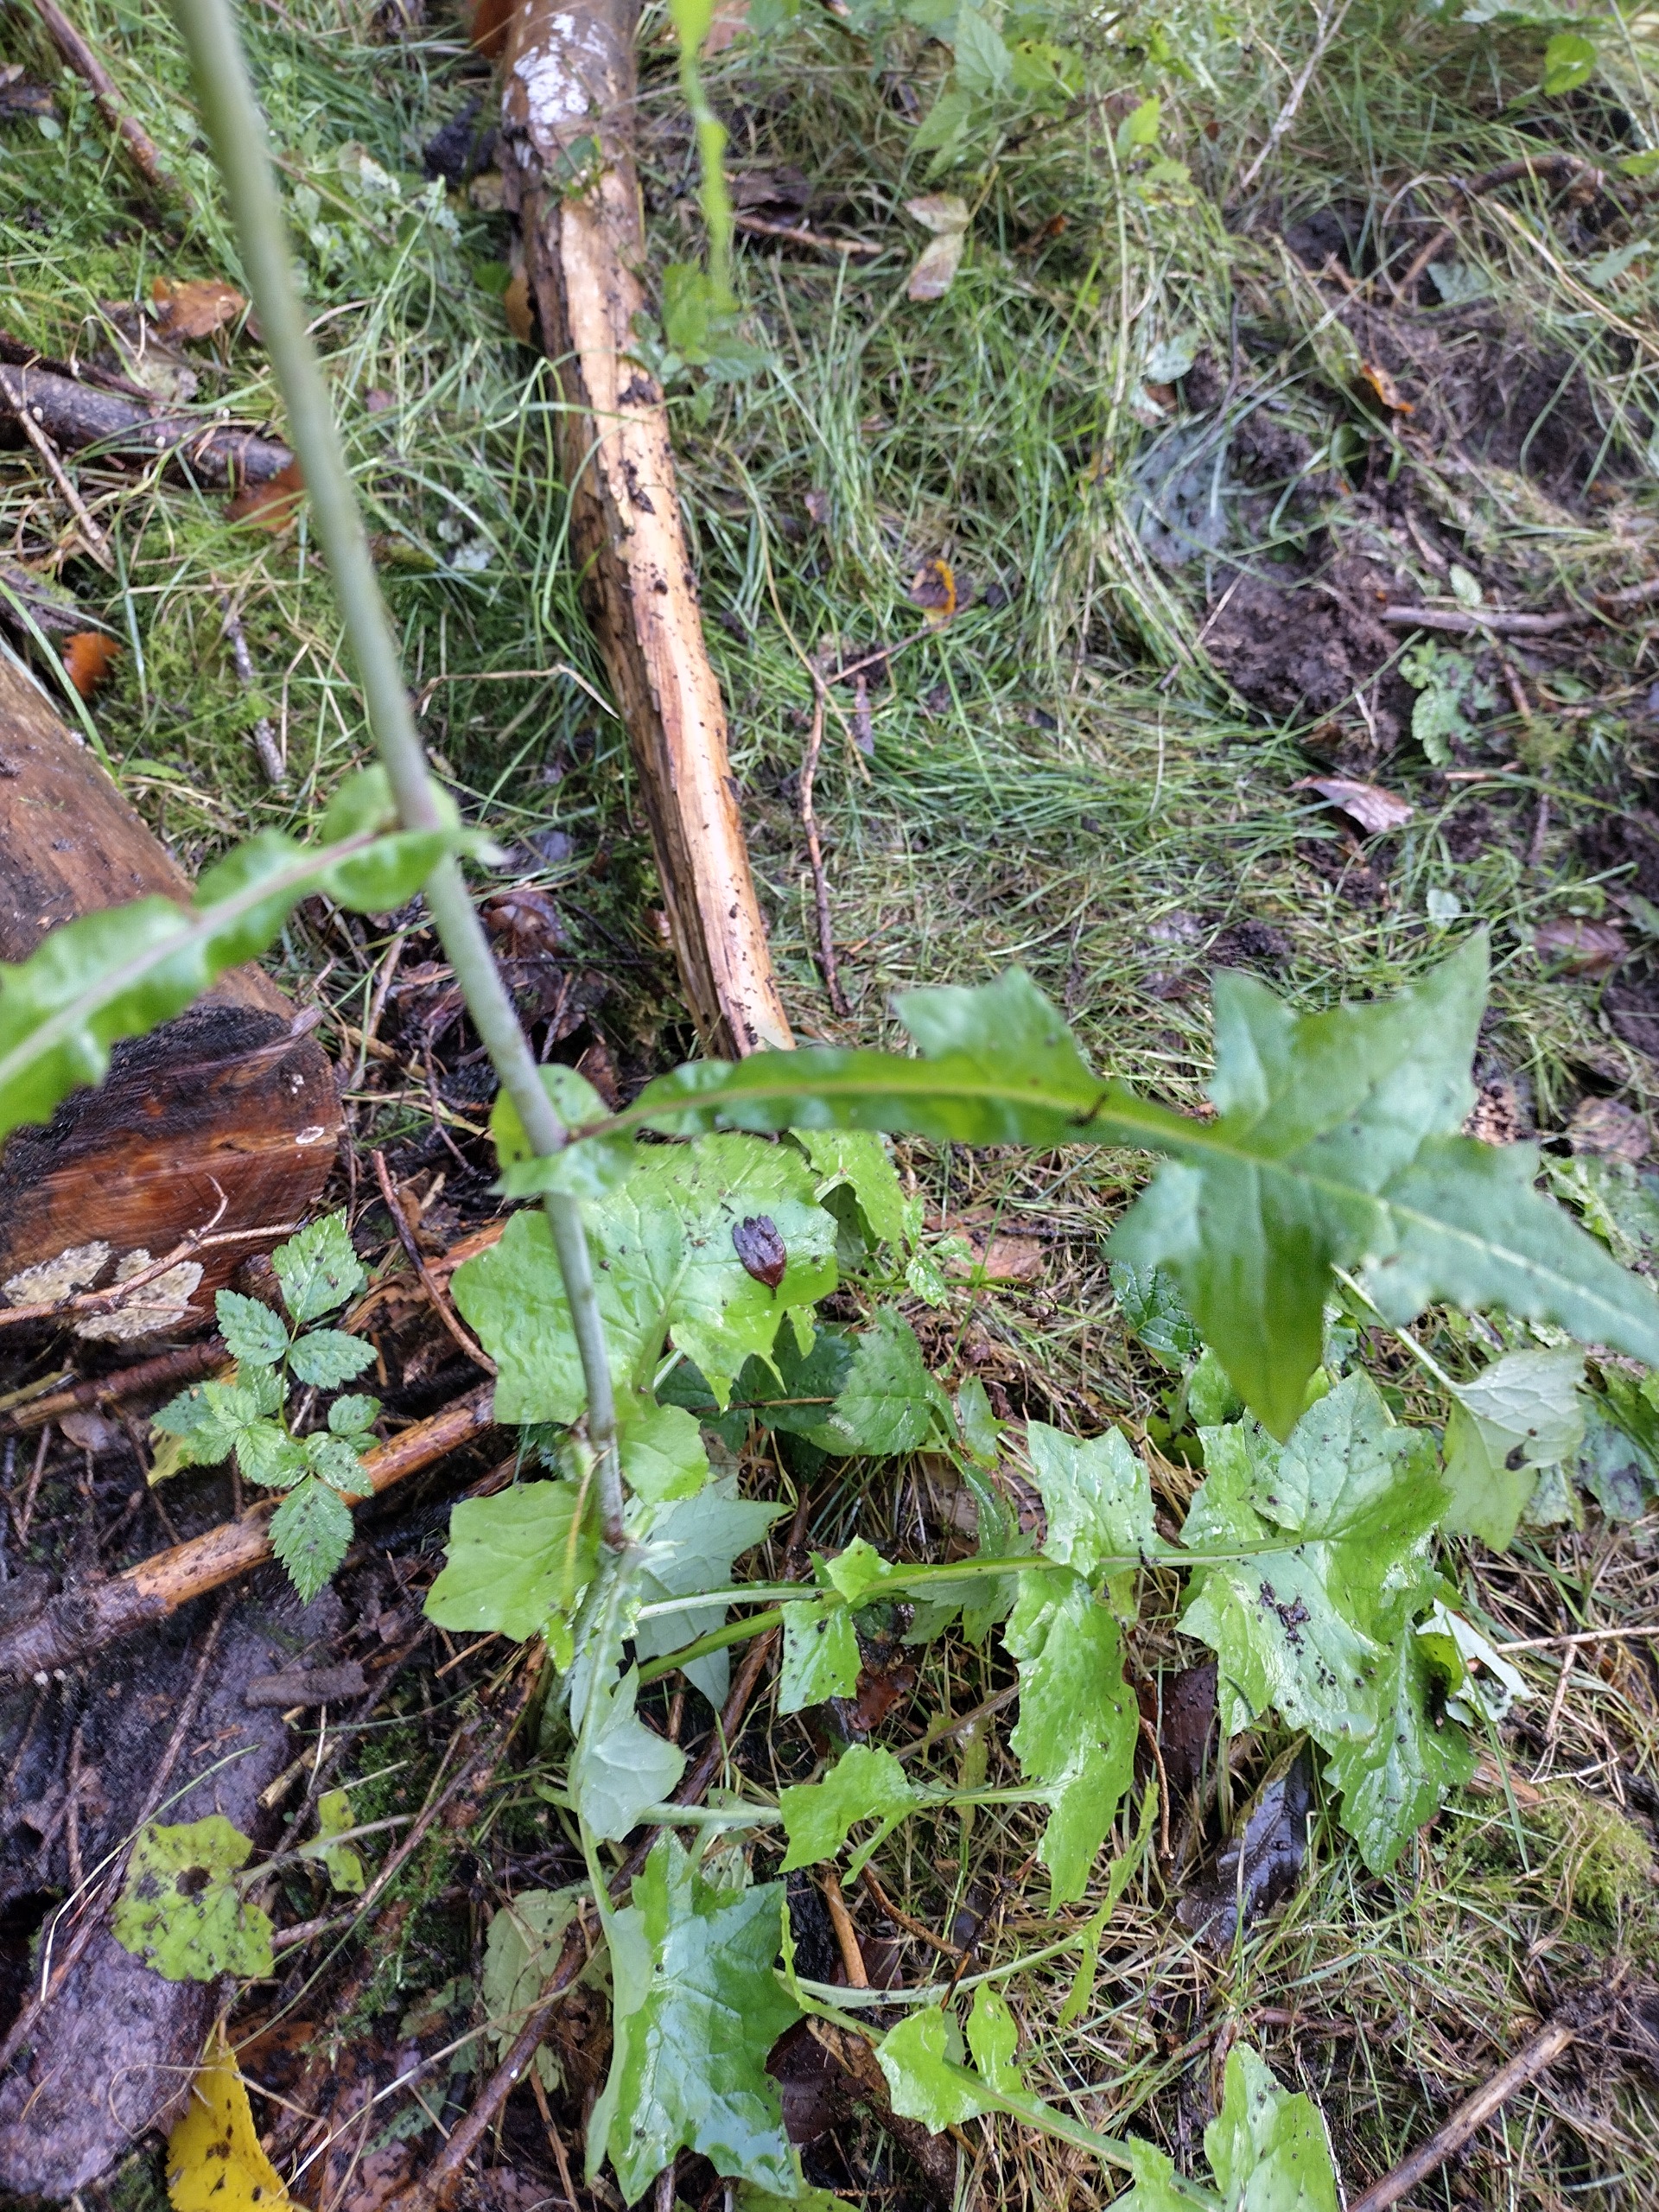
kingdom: Plantae
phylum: Tracheophyta
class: Magnoliopsida
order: Asterales
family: Asteraceae
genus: Mycelis
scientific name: Mycelis muralis
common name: Skov-salat
